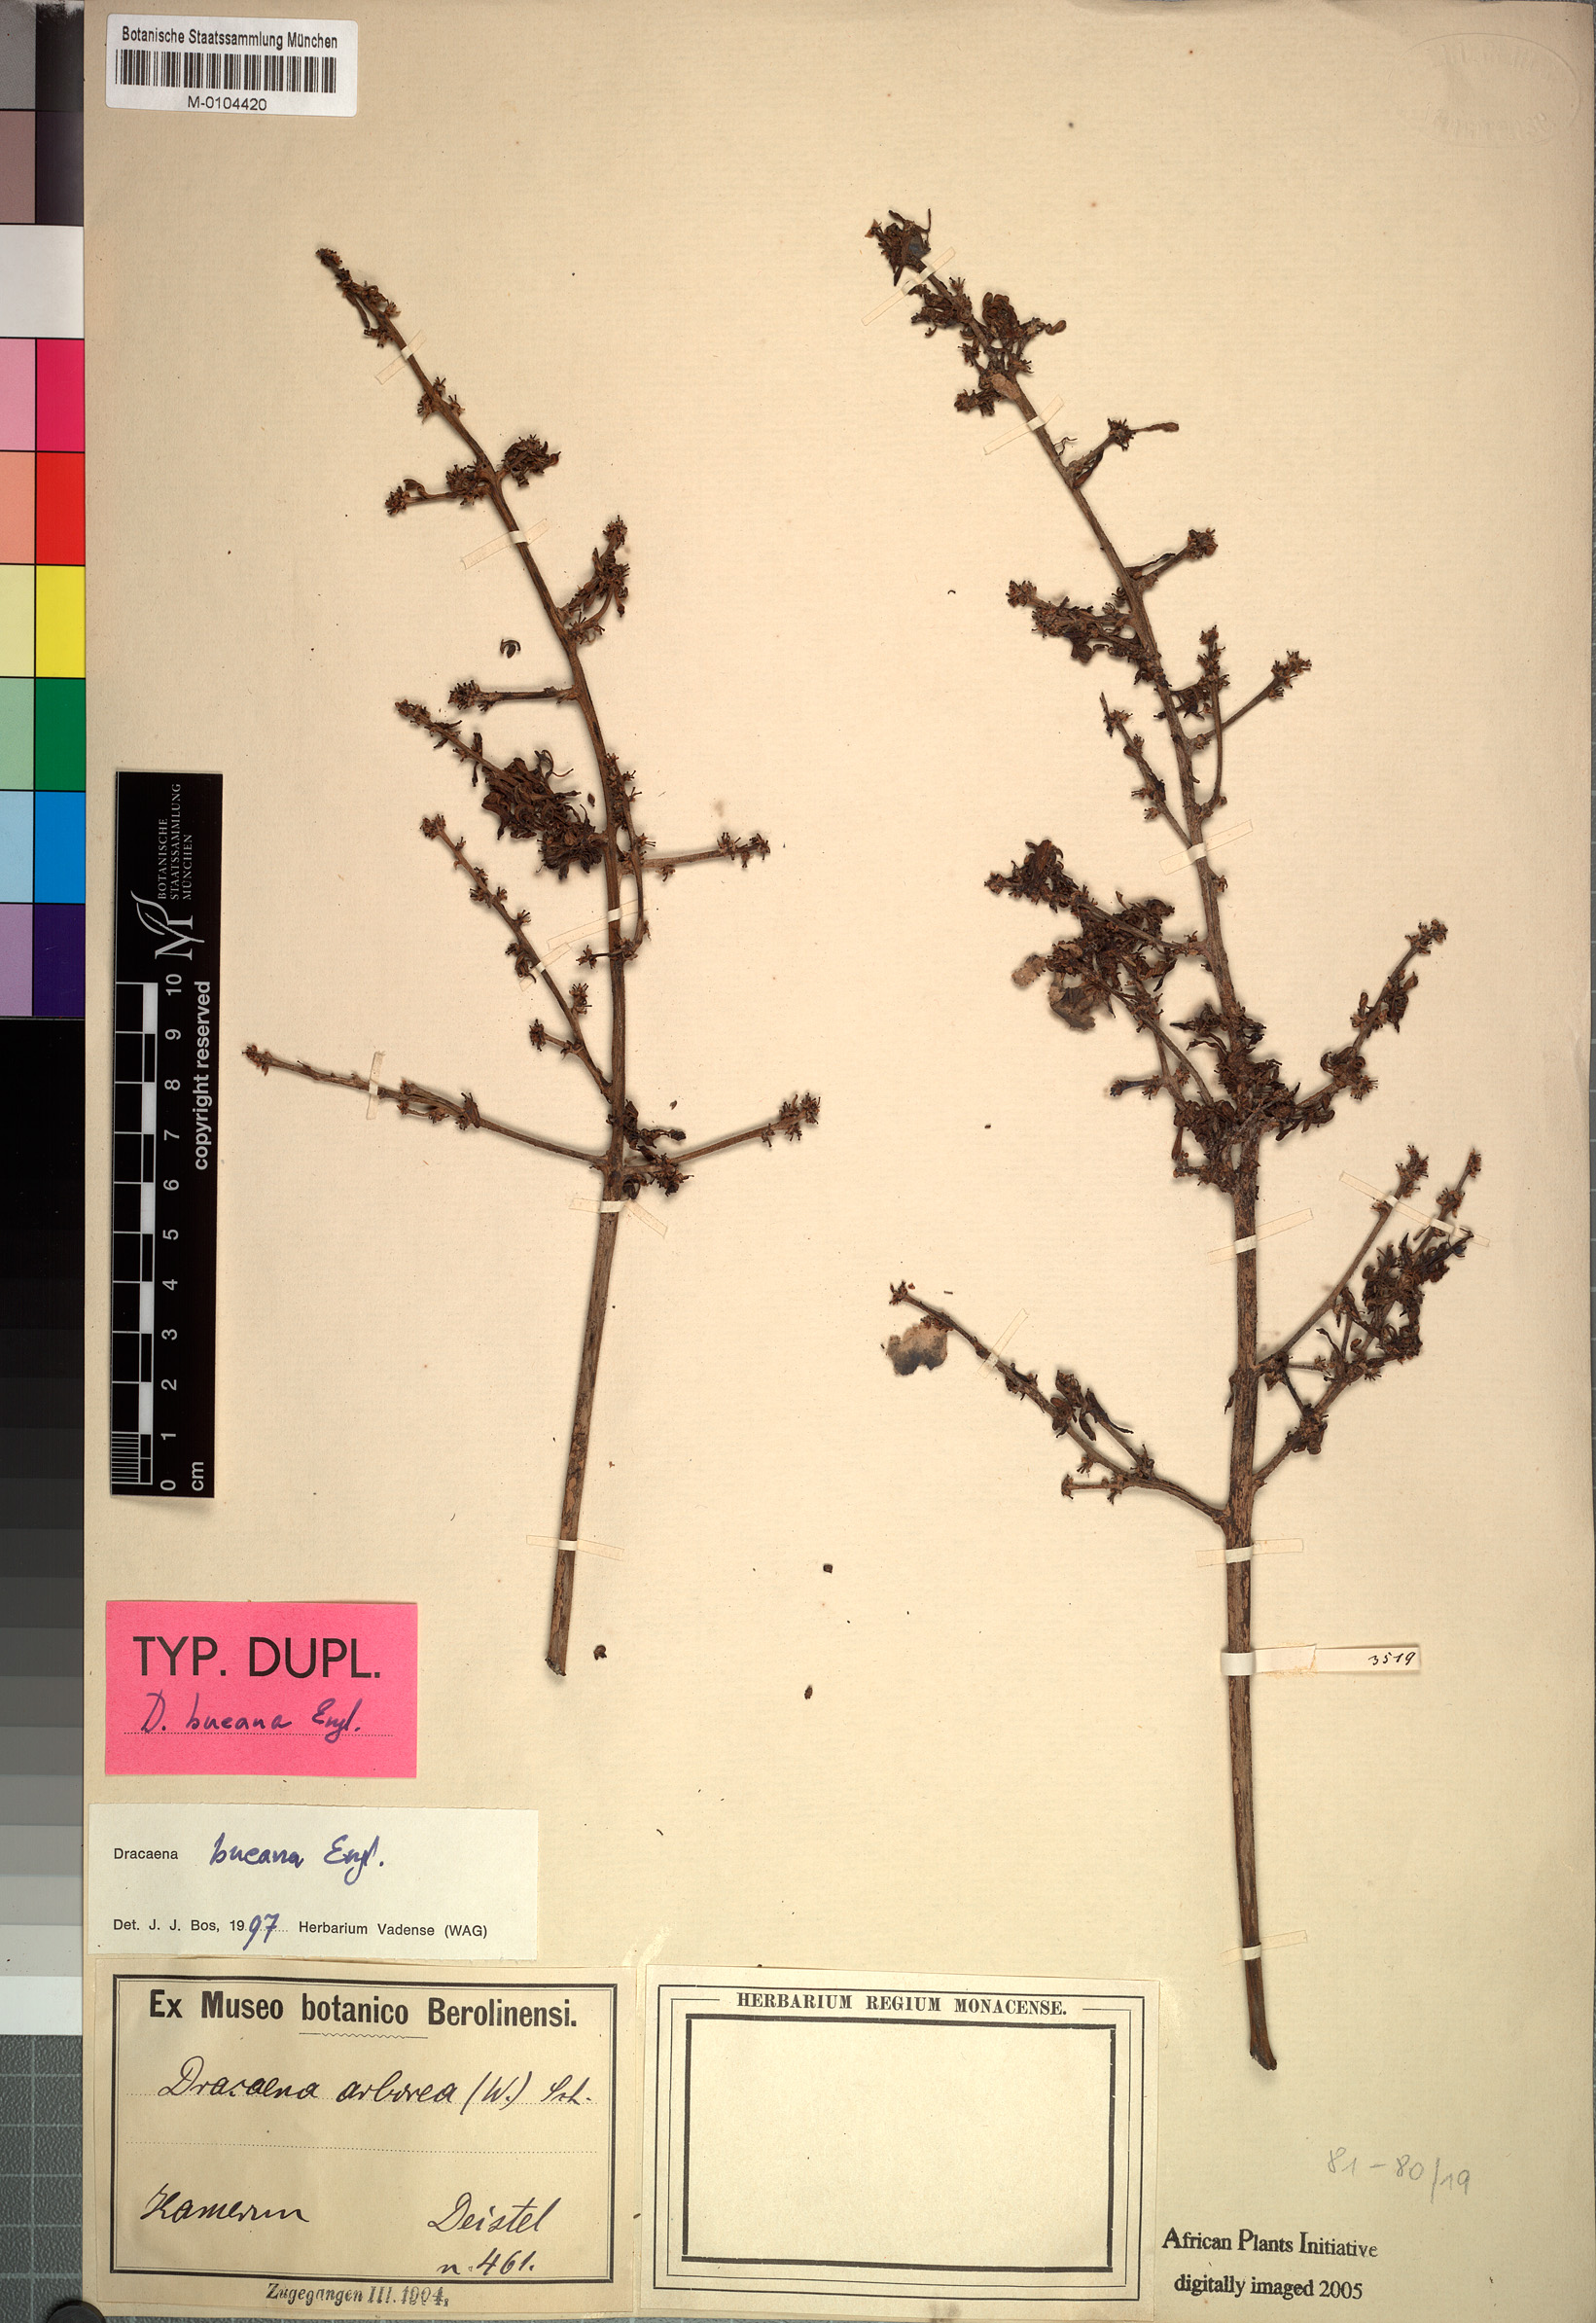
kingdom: Plantae
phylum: Tracheophyta
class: Liliopsida
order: Asparagales
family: Asparagaceae
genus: Dracaena
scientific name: Dracaena bueana
